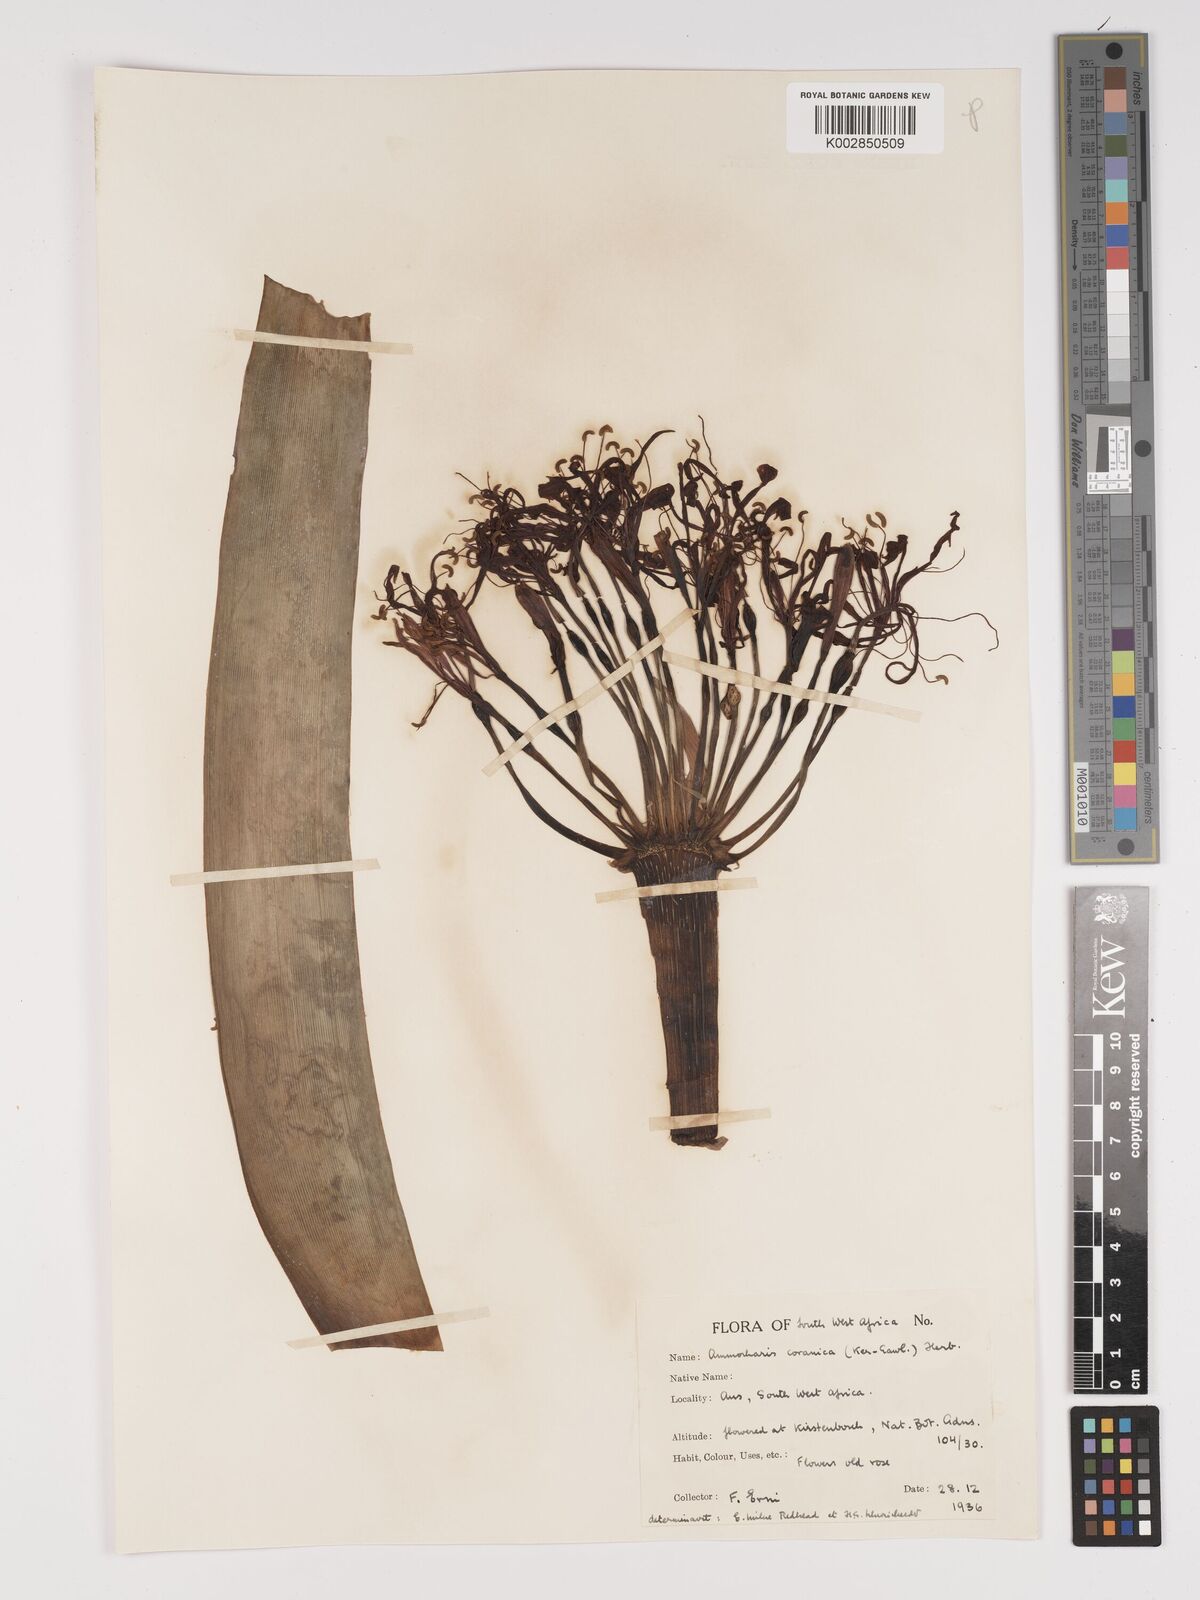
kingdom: Plantae
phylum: Tracheophyta
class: Liliopsida
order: Asparagales
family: Amaryllidaceae
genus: Ammocharis
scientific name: Ammocharis coranica
